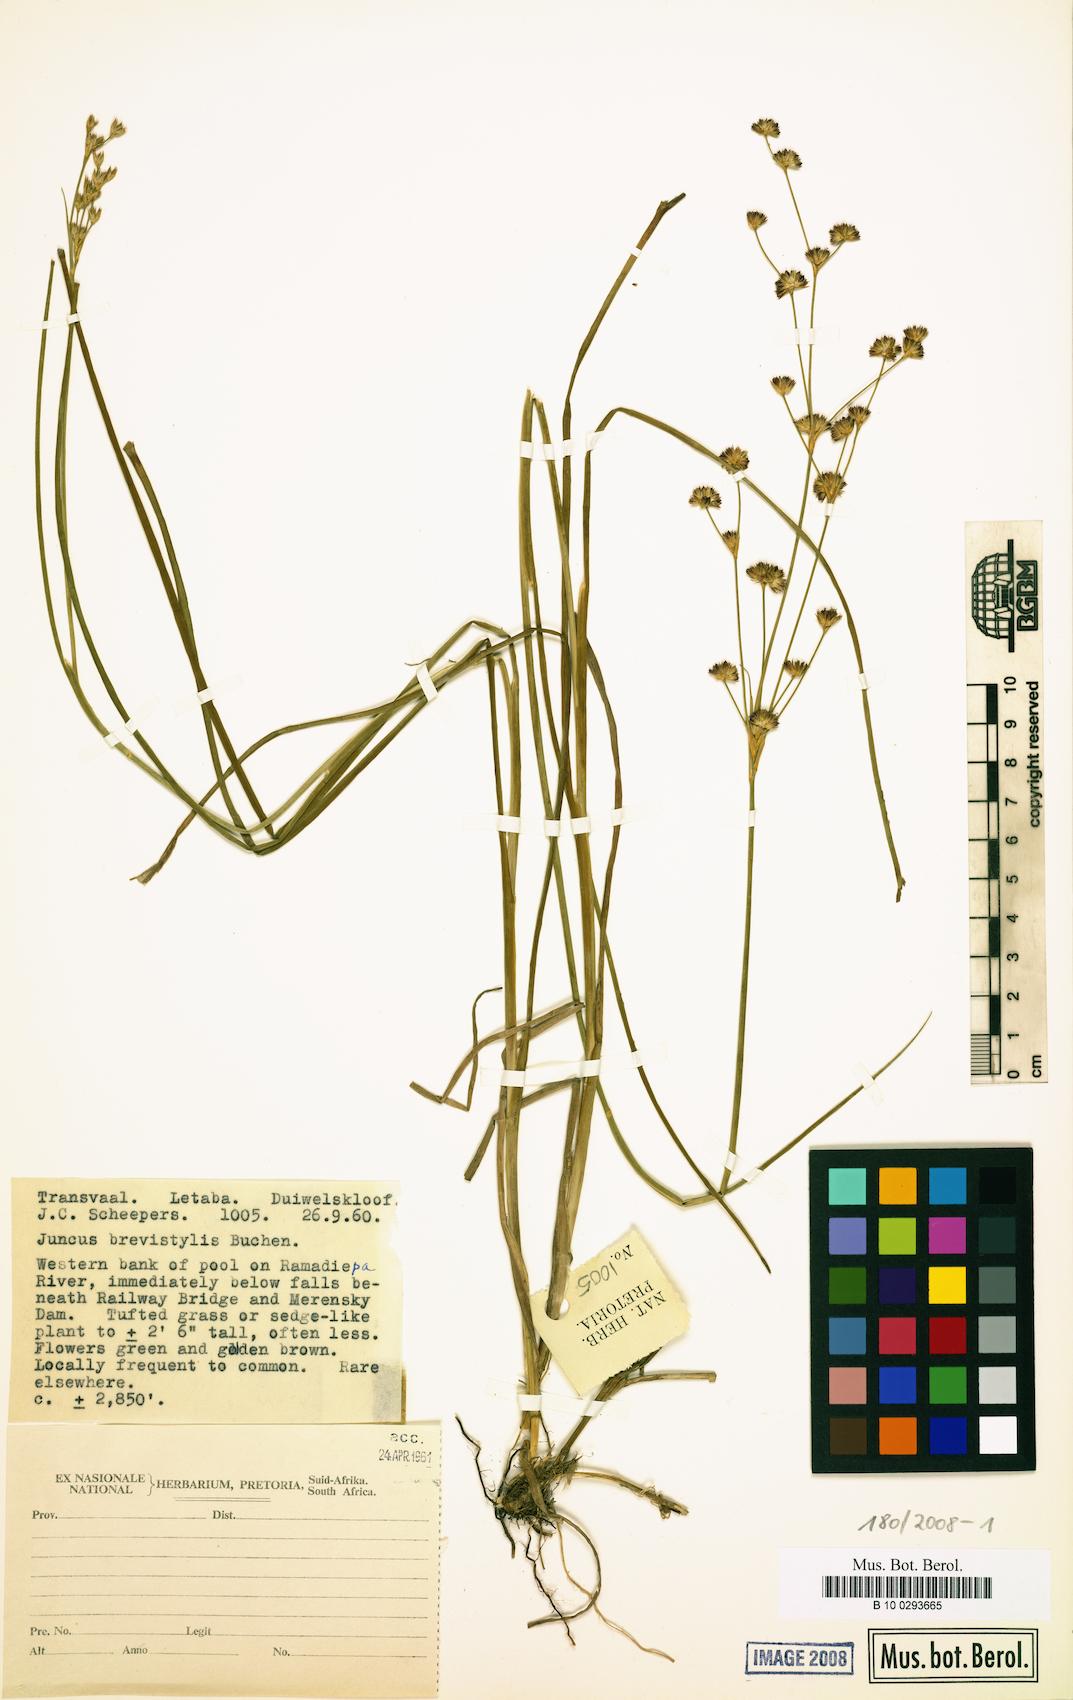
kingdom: Plantae
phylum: Tracheophyta
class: Liliopsida
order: Poales
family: Juncaceae
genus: Juncus
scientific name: Juncus oxycarpus
